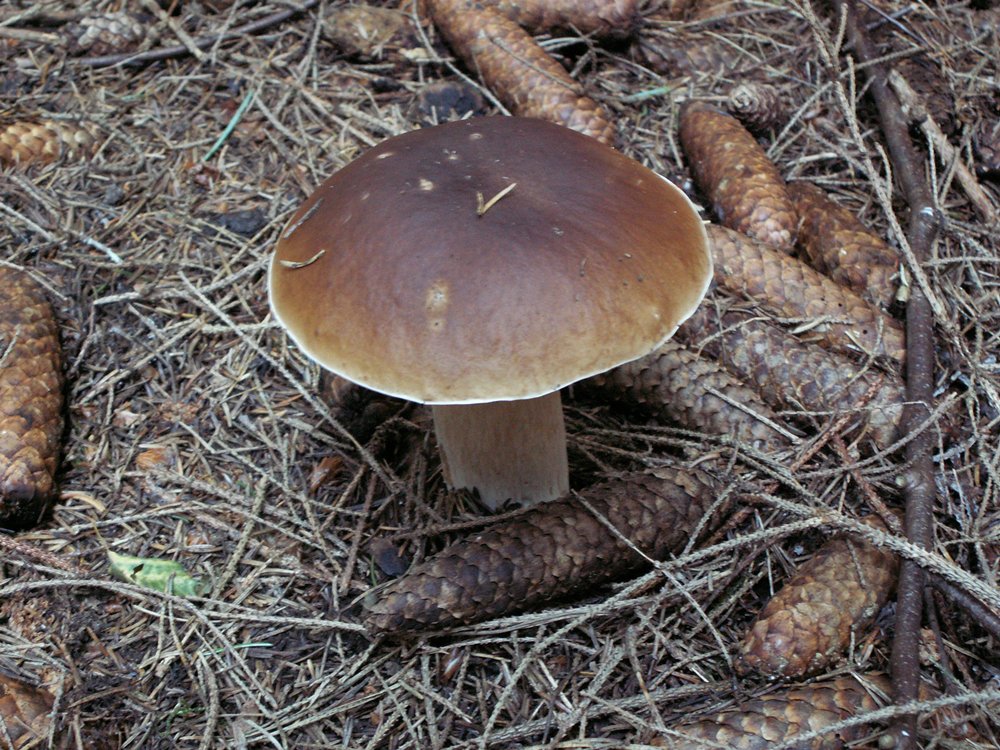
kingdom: Fungi
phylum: Basidiomycota
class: Agaricomycetes
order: Boletales
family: Boletaceae
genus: Boletus
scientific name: Boletus edulis
